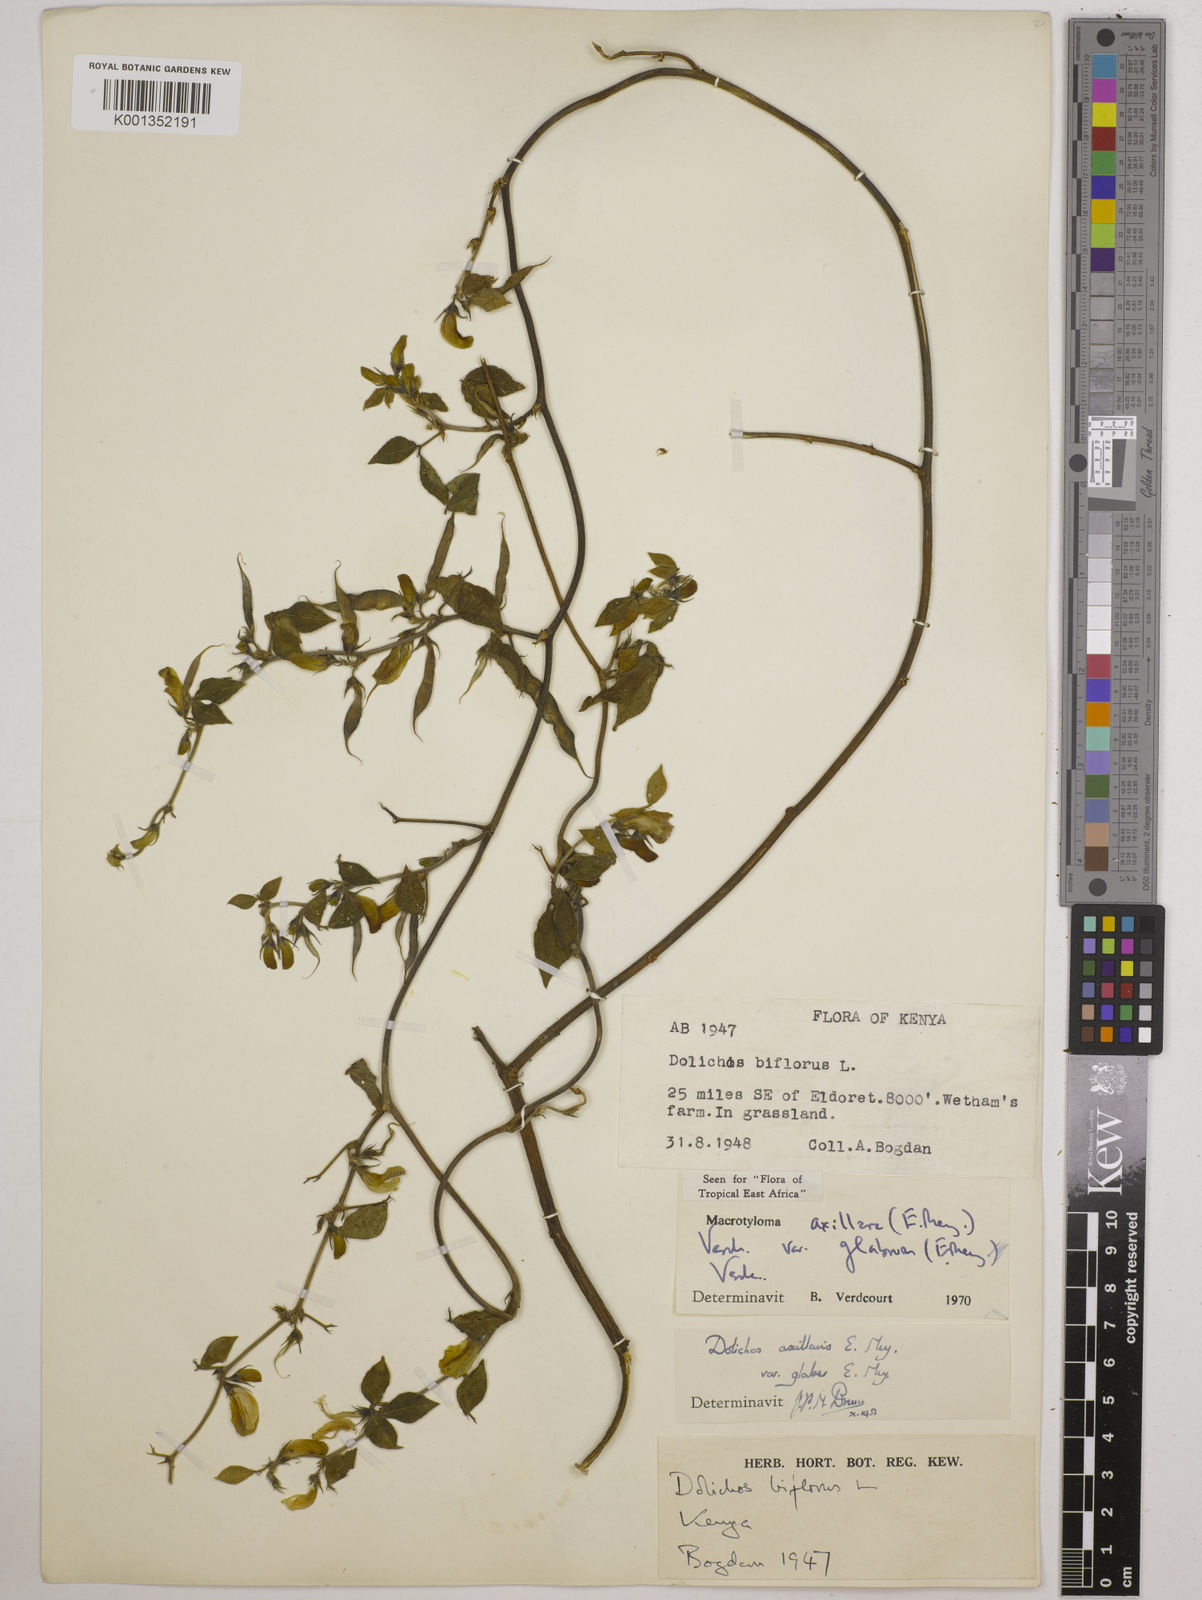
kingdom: Plantae
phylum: Tracheophyta
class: Magnoliopsida
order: Fabales
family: Fabaceae
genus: Macrotyloma
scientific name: Macrotyloma
